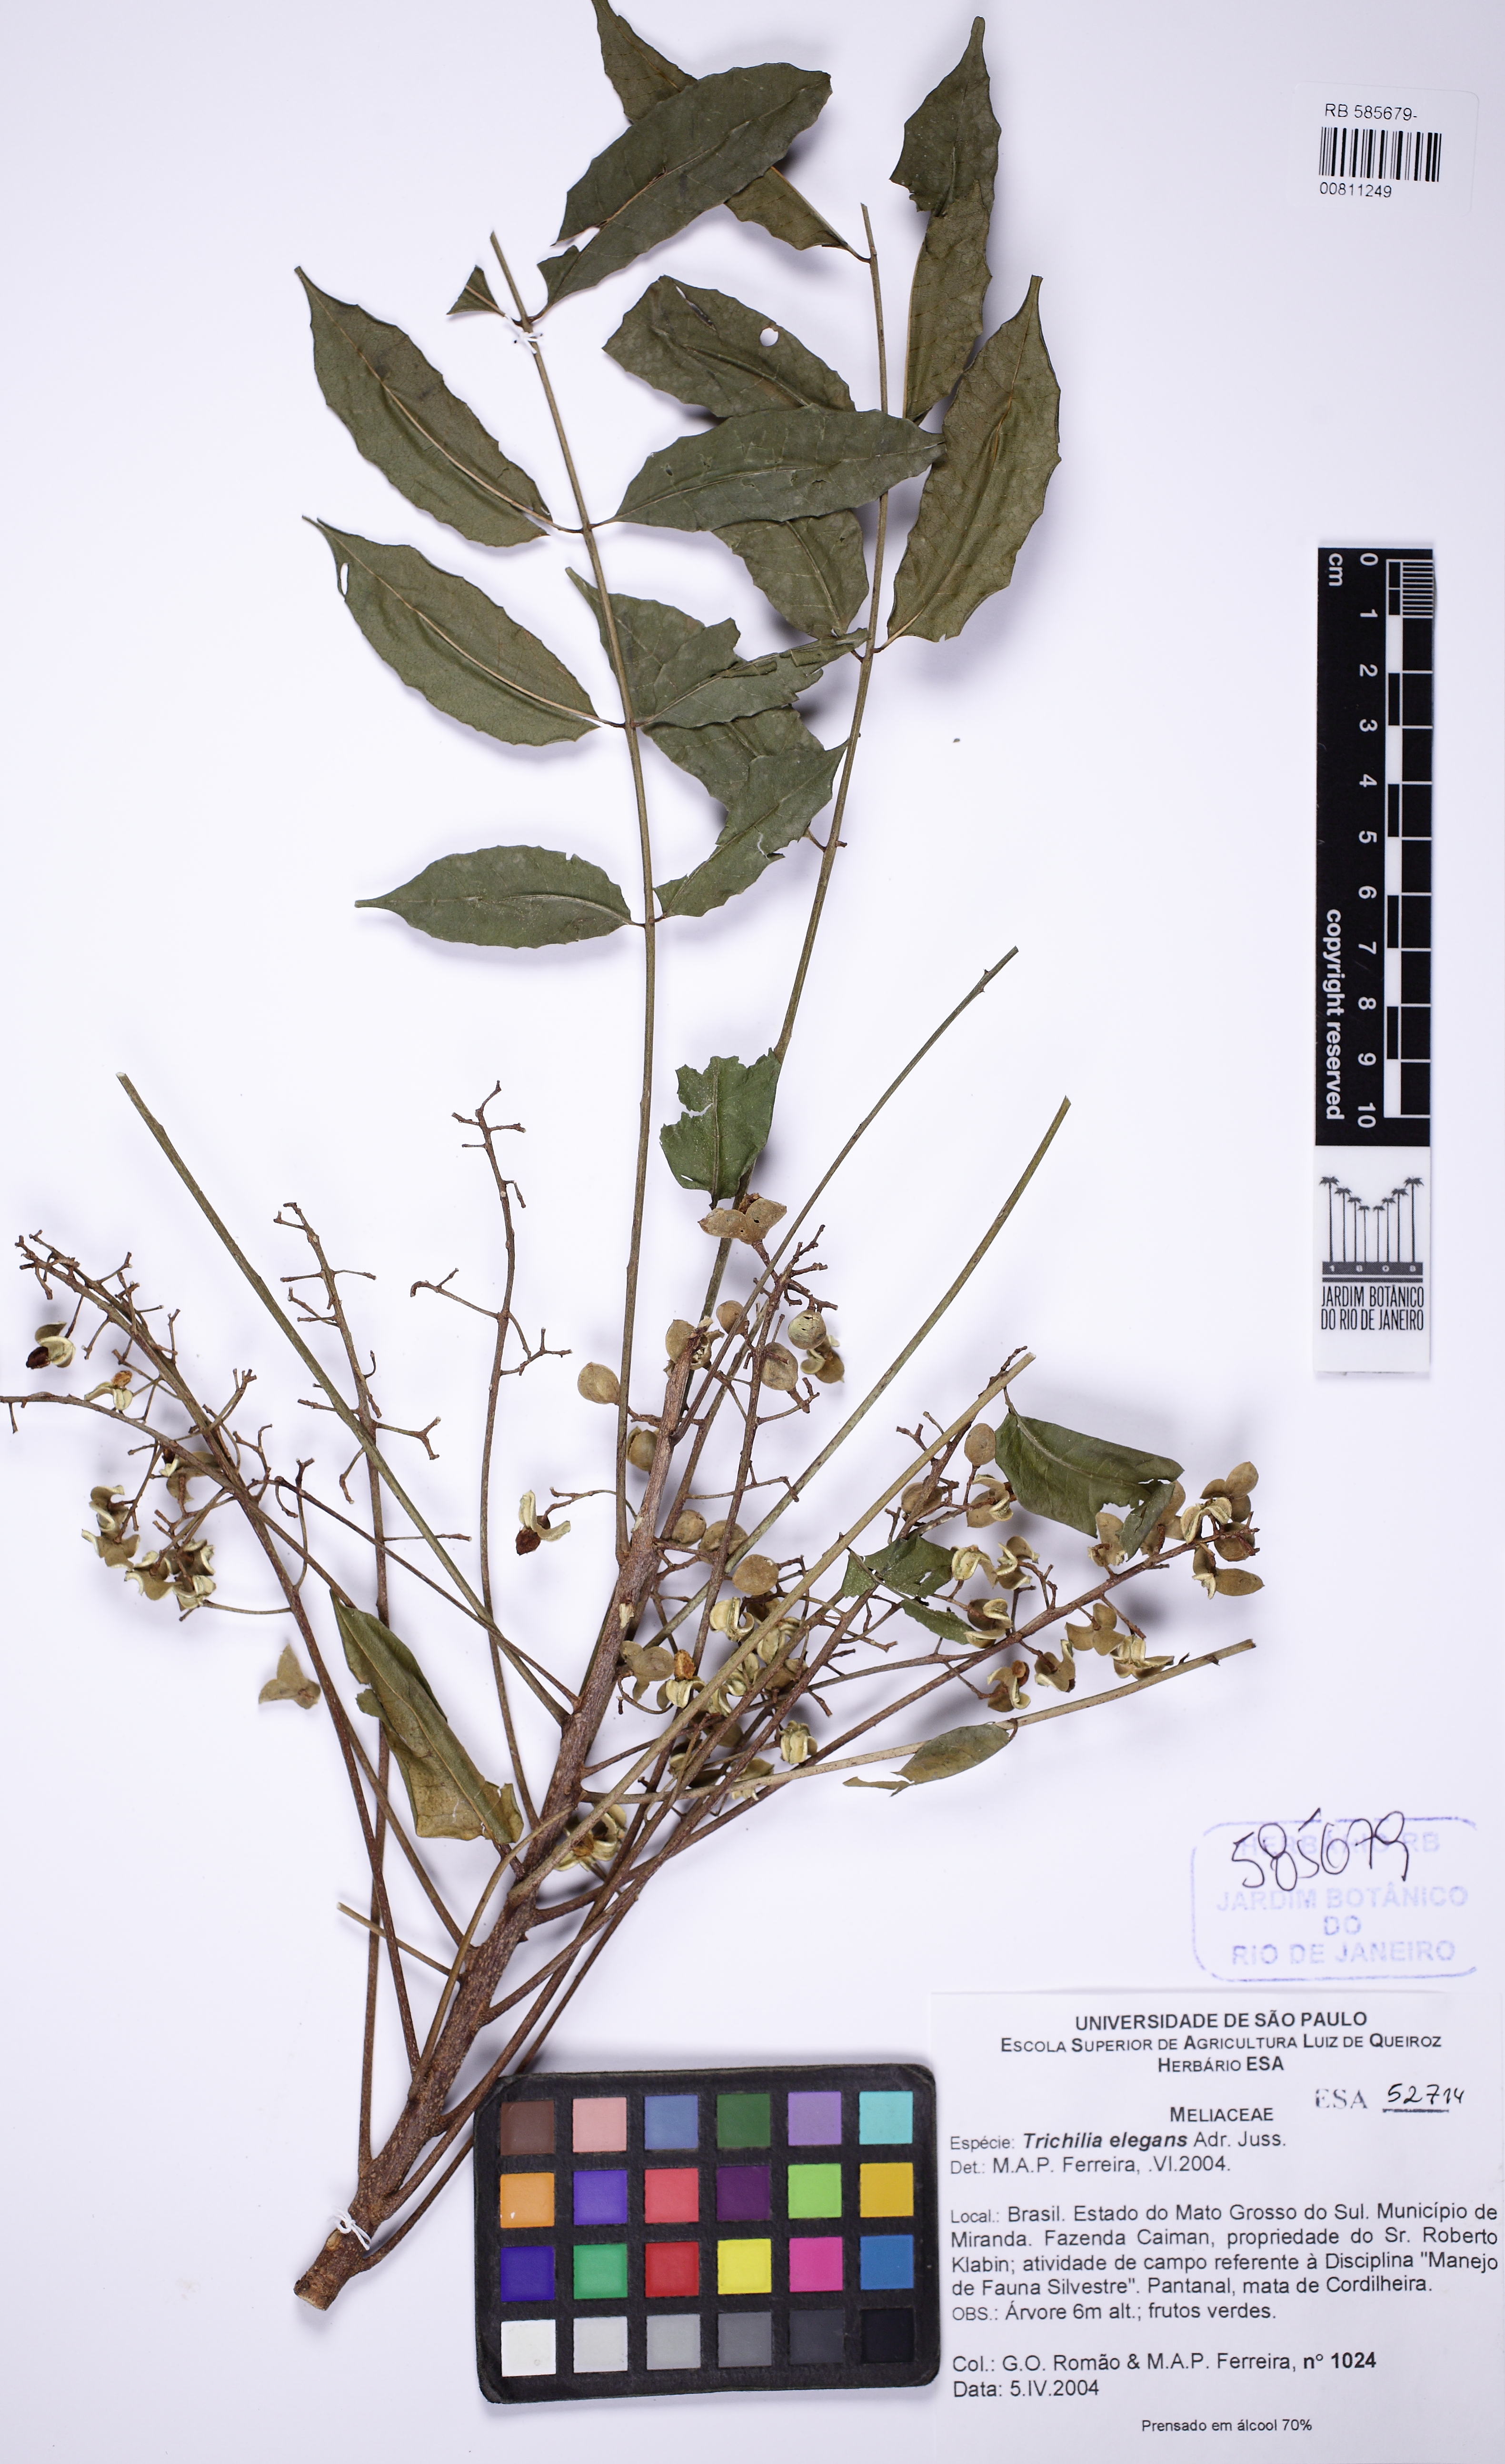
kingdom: Plantae
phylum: Tracheophyta
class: Magnoliopsida
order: Sapindales
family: Meliaceae
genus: Trichilia
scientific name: Trichilia elegans
